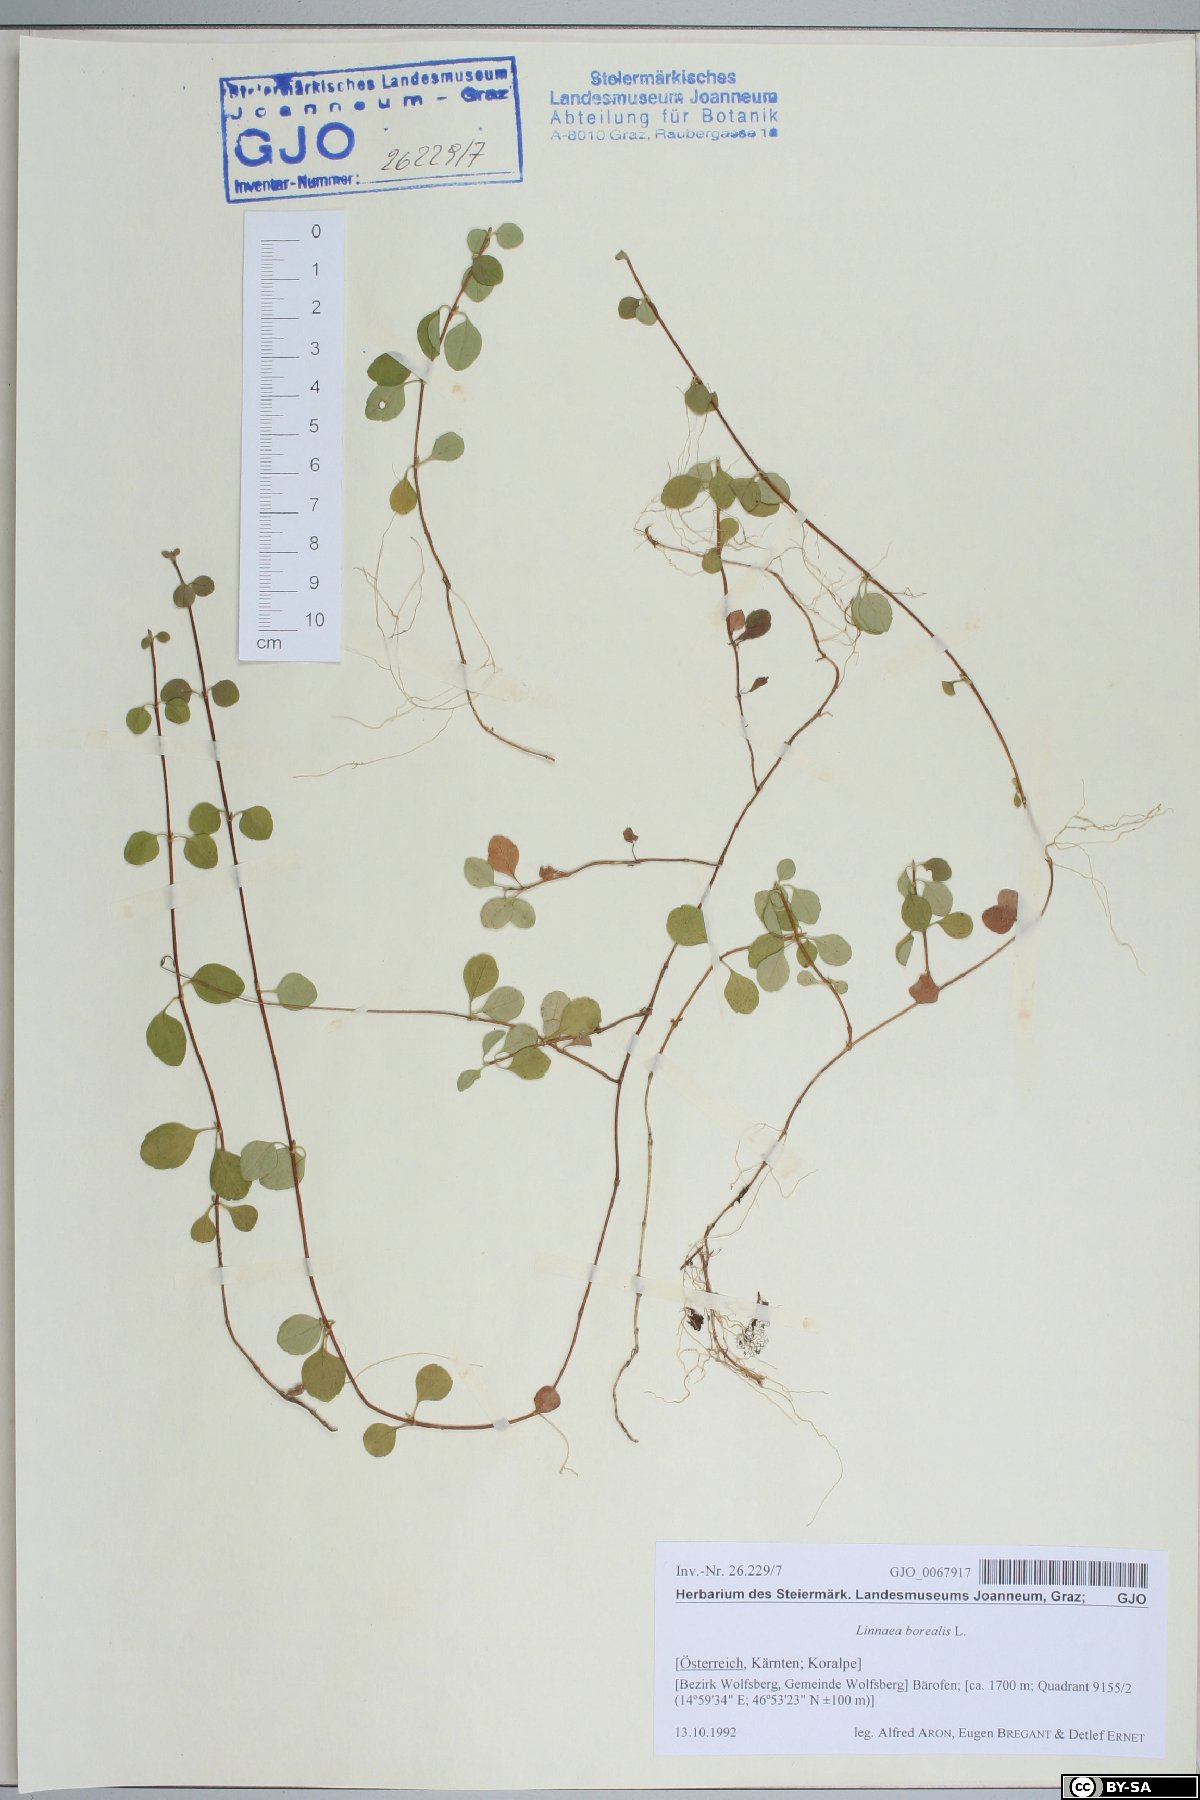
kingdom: Plantae
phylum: Tracheophyta
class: Magnoliopsida
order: Dipsacales
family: Caprifoliaceae
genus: Linnaea
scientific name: Linnaea borealis
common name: Twinflower
